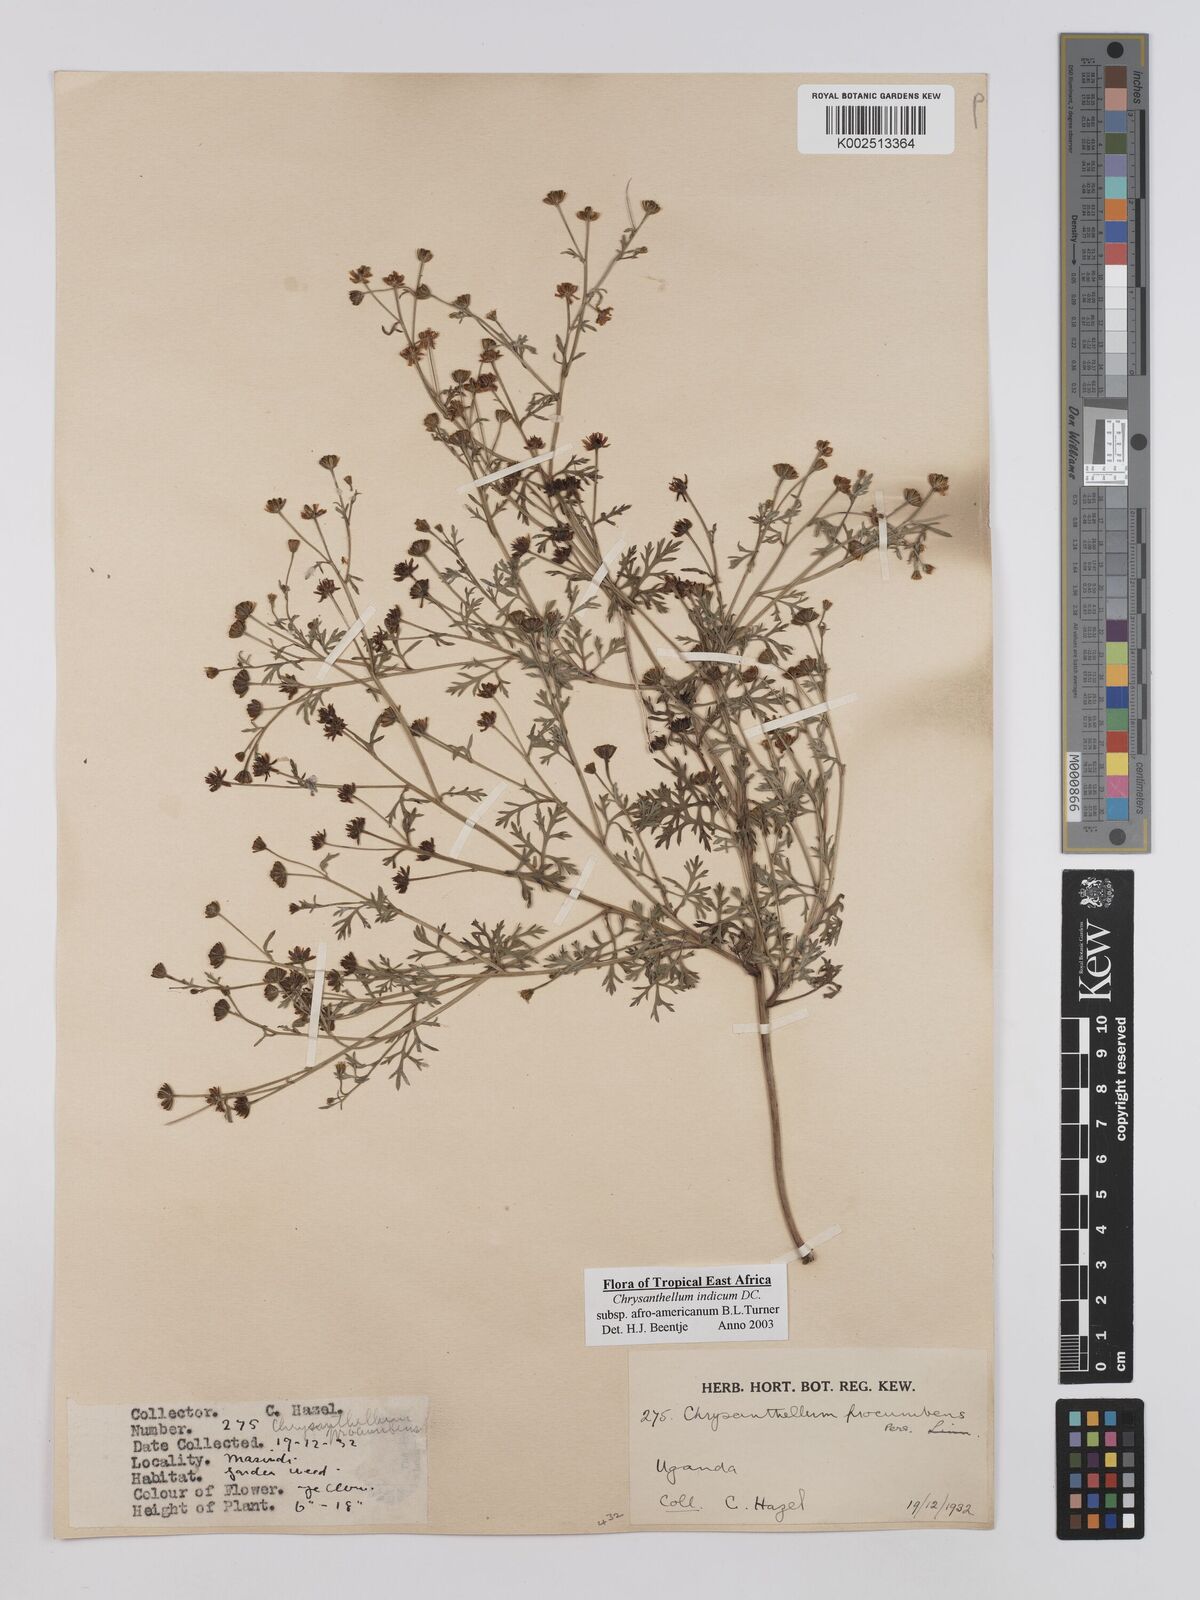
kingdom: Plantae
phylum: Tracheophyta
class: Magnoliopsida
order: Asterales
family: Asteraceae
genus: Chrysanthellum
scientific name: Chrysanthellum indicum
